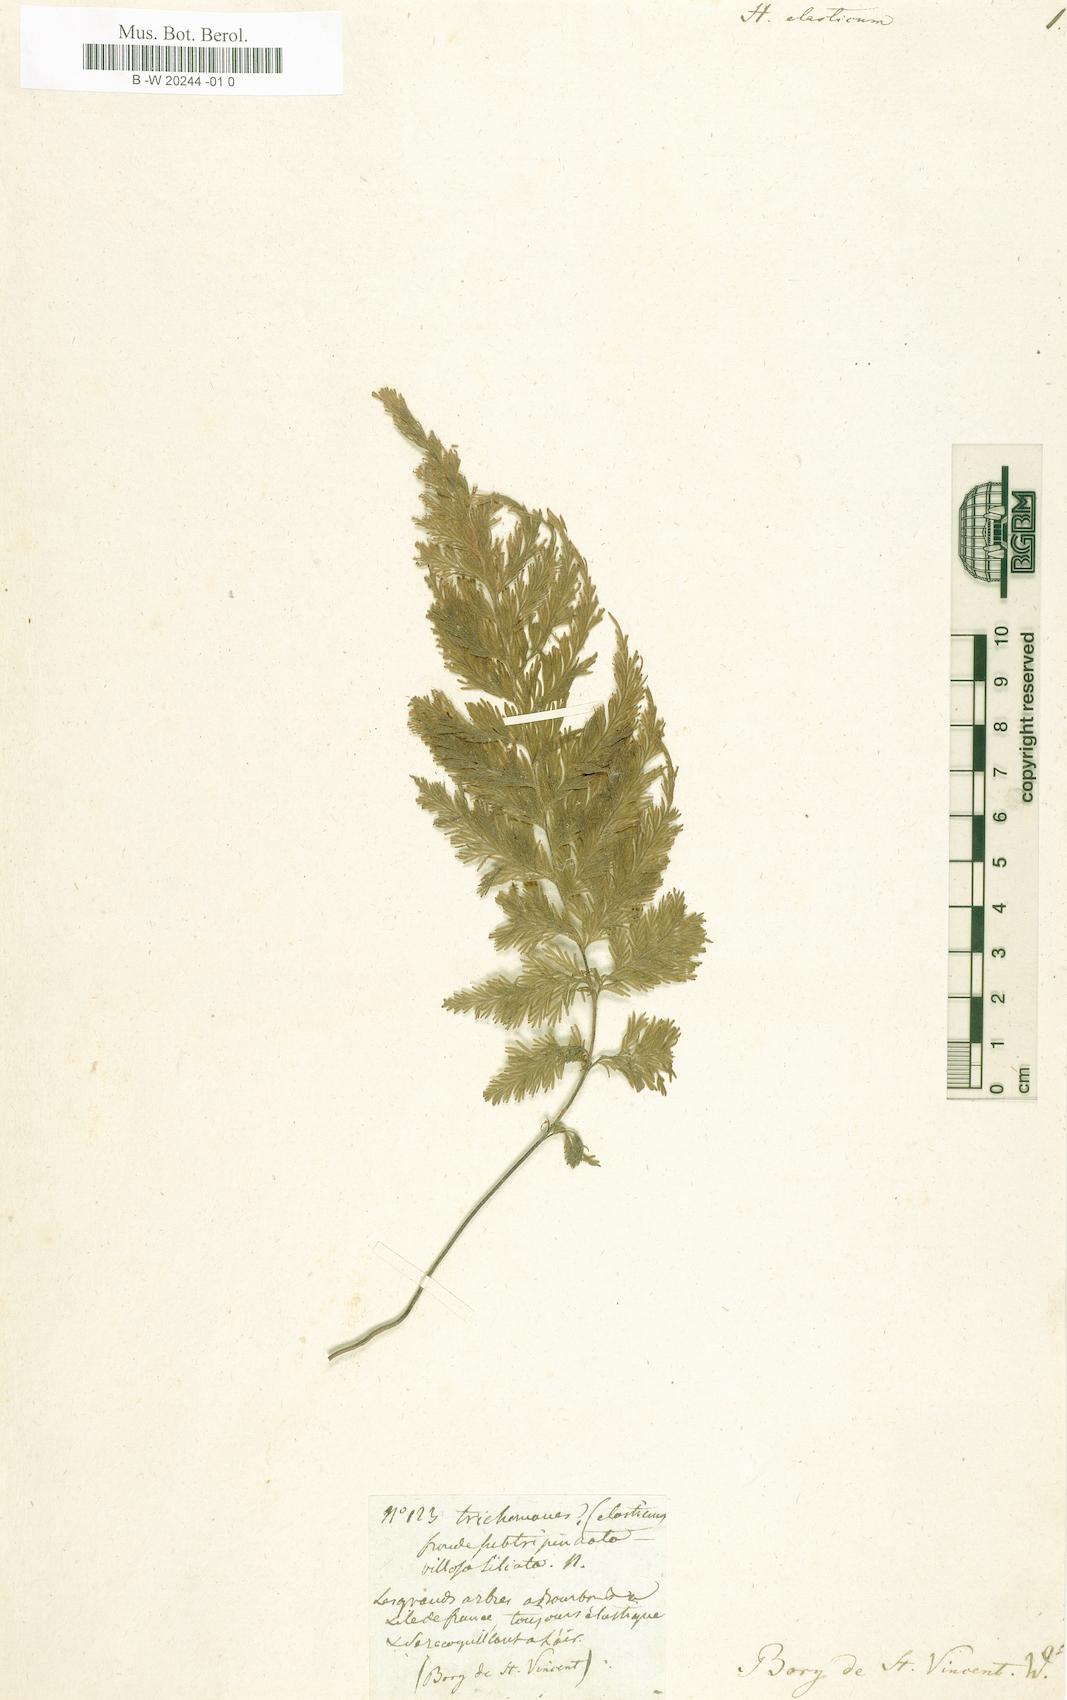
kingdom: Plantae
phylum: Tracheophyta
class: Polypodiopsida
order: Hymenophyllales
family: Hymenophyllaceae
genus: Hymenophyllum
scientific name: Hymenophyllum hygrometricum
